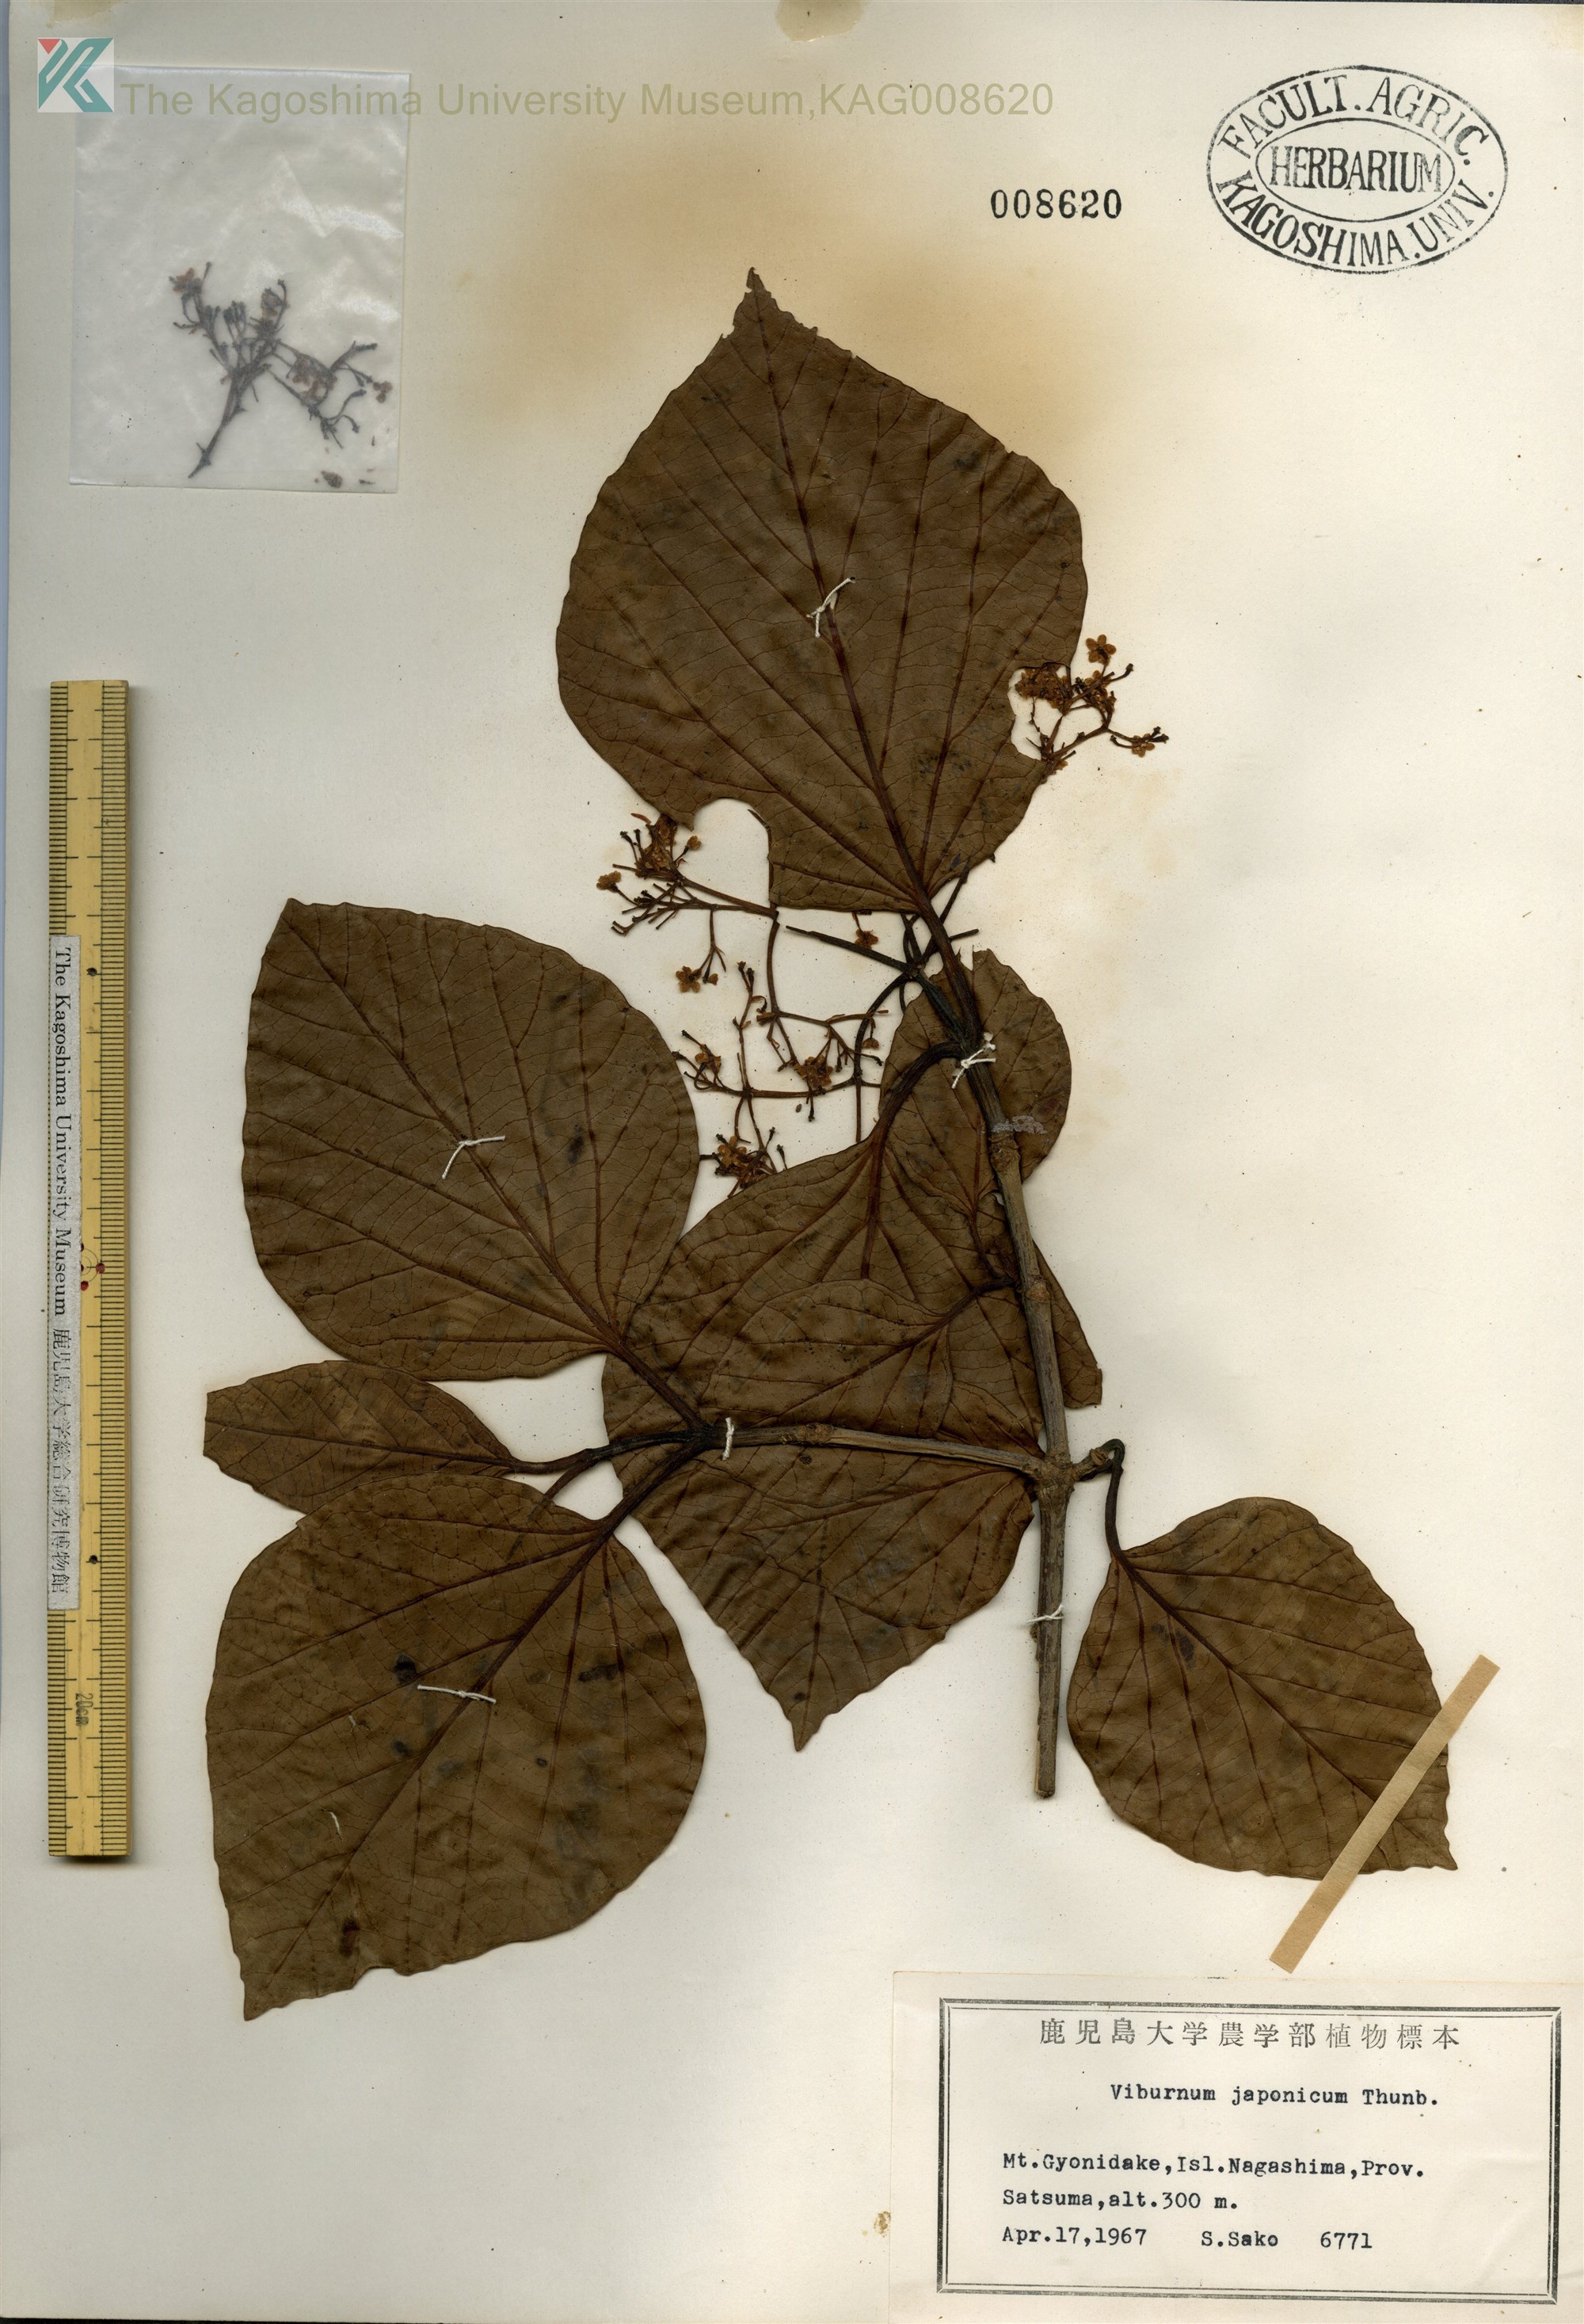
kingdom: Plantae
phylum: Tracheophyta
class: Magnoliopsida
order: Dipsacales
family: Viburnaceae
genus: Viburnum
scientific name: Viburnum japonicum
